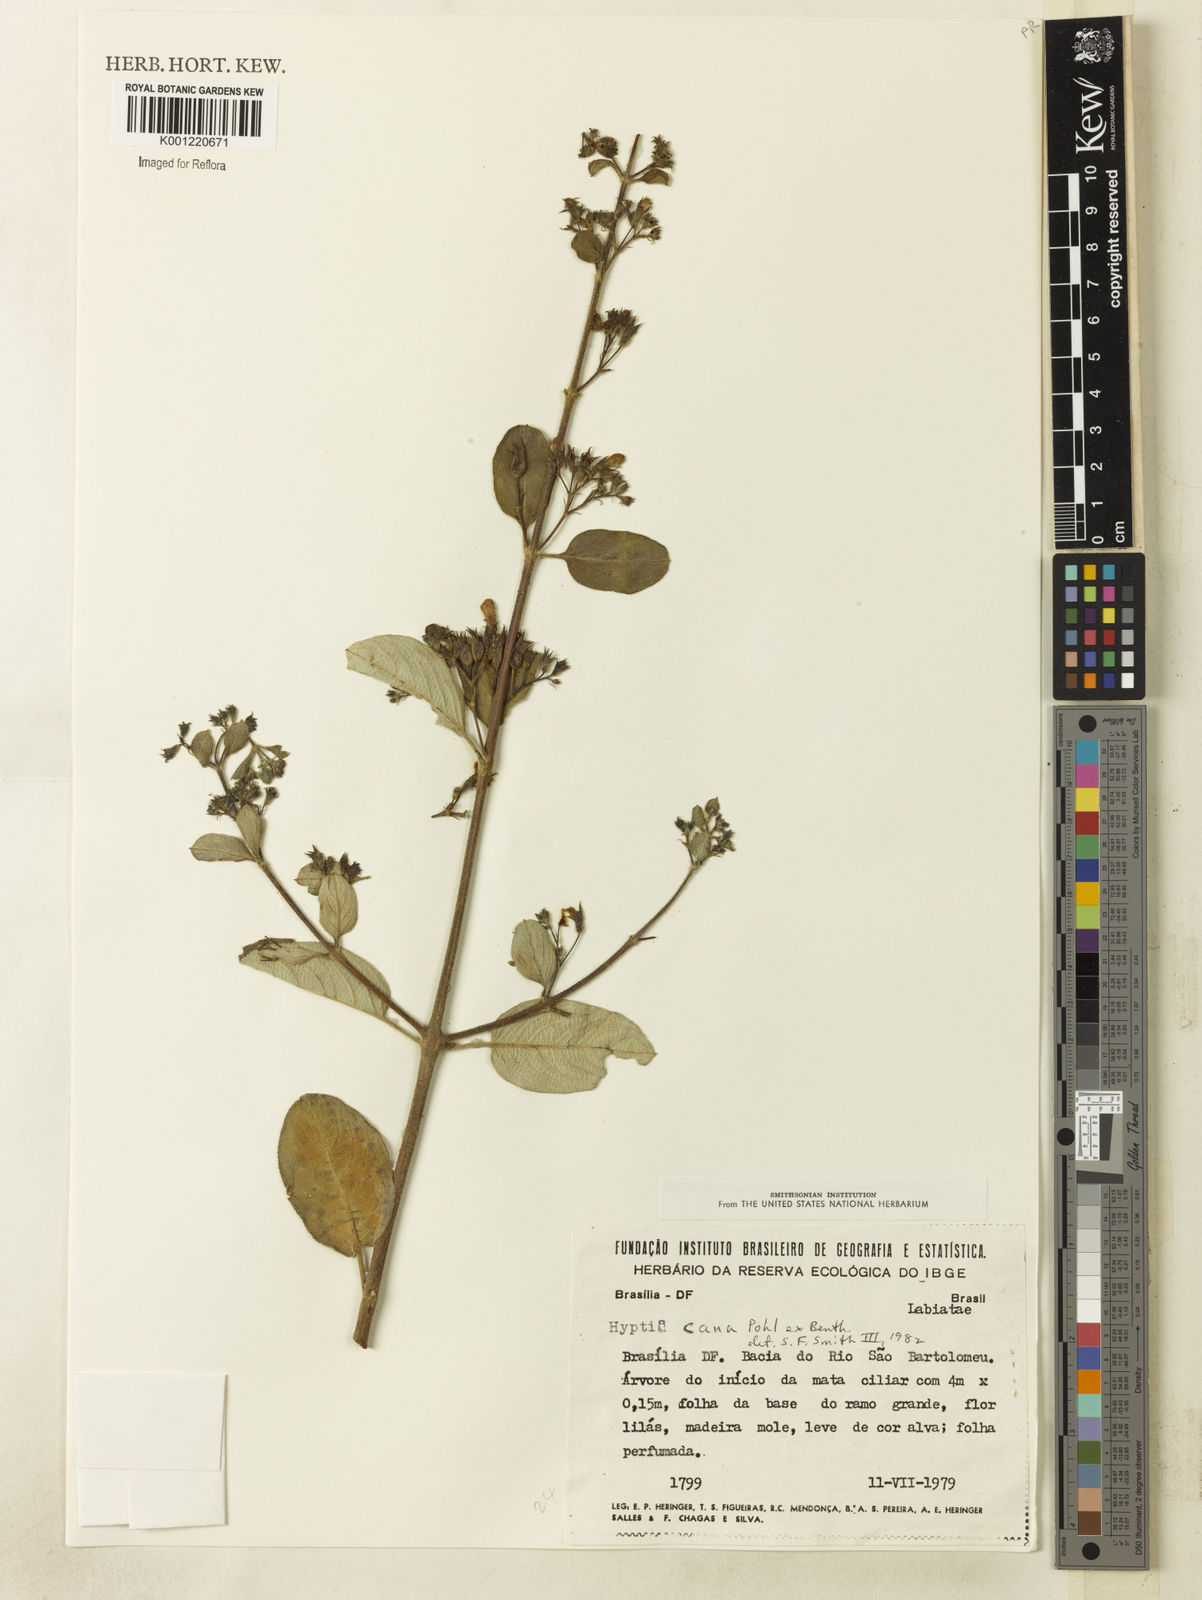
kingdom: Plantae
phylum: Tracheophyta
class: Magnoliopsida
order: Lamiales
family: Lamiaceae
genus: Hyptidendron
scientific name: Hyptidendron canum
